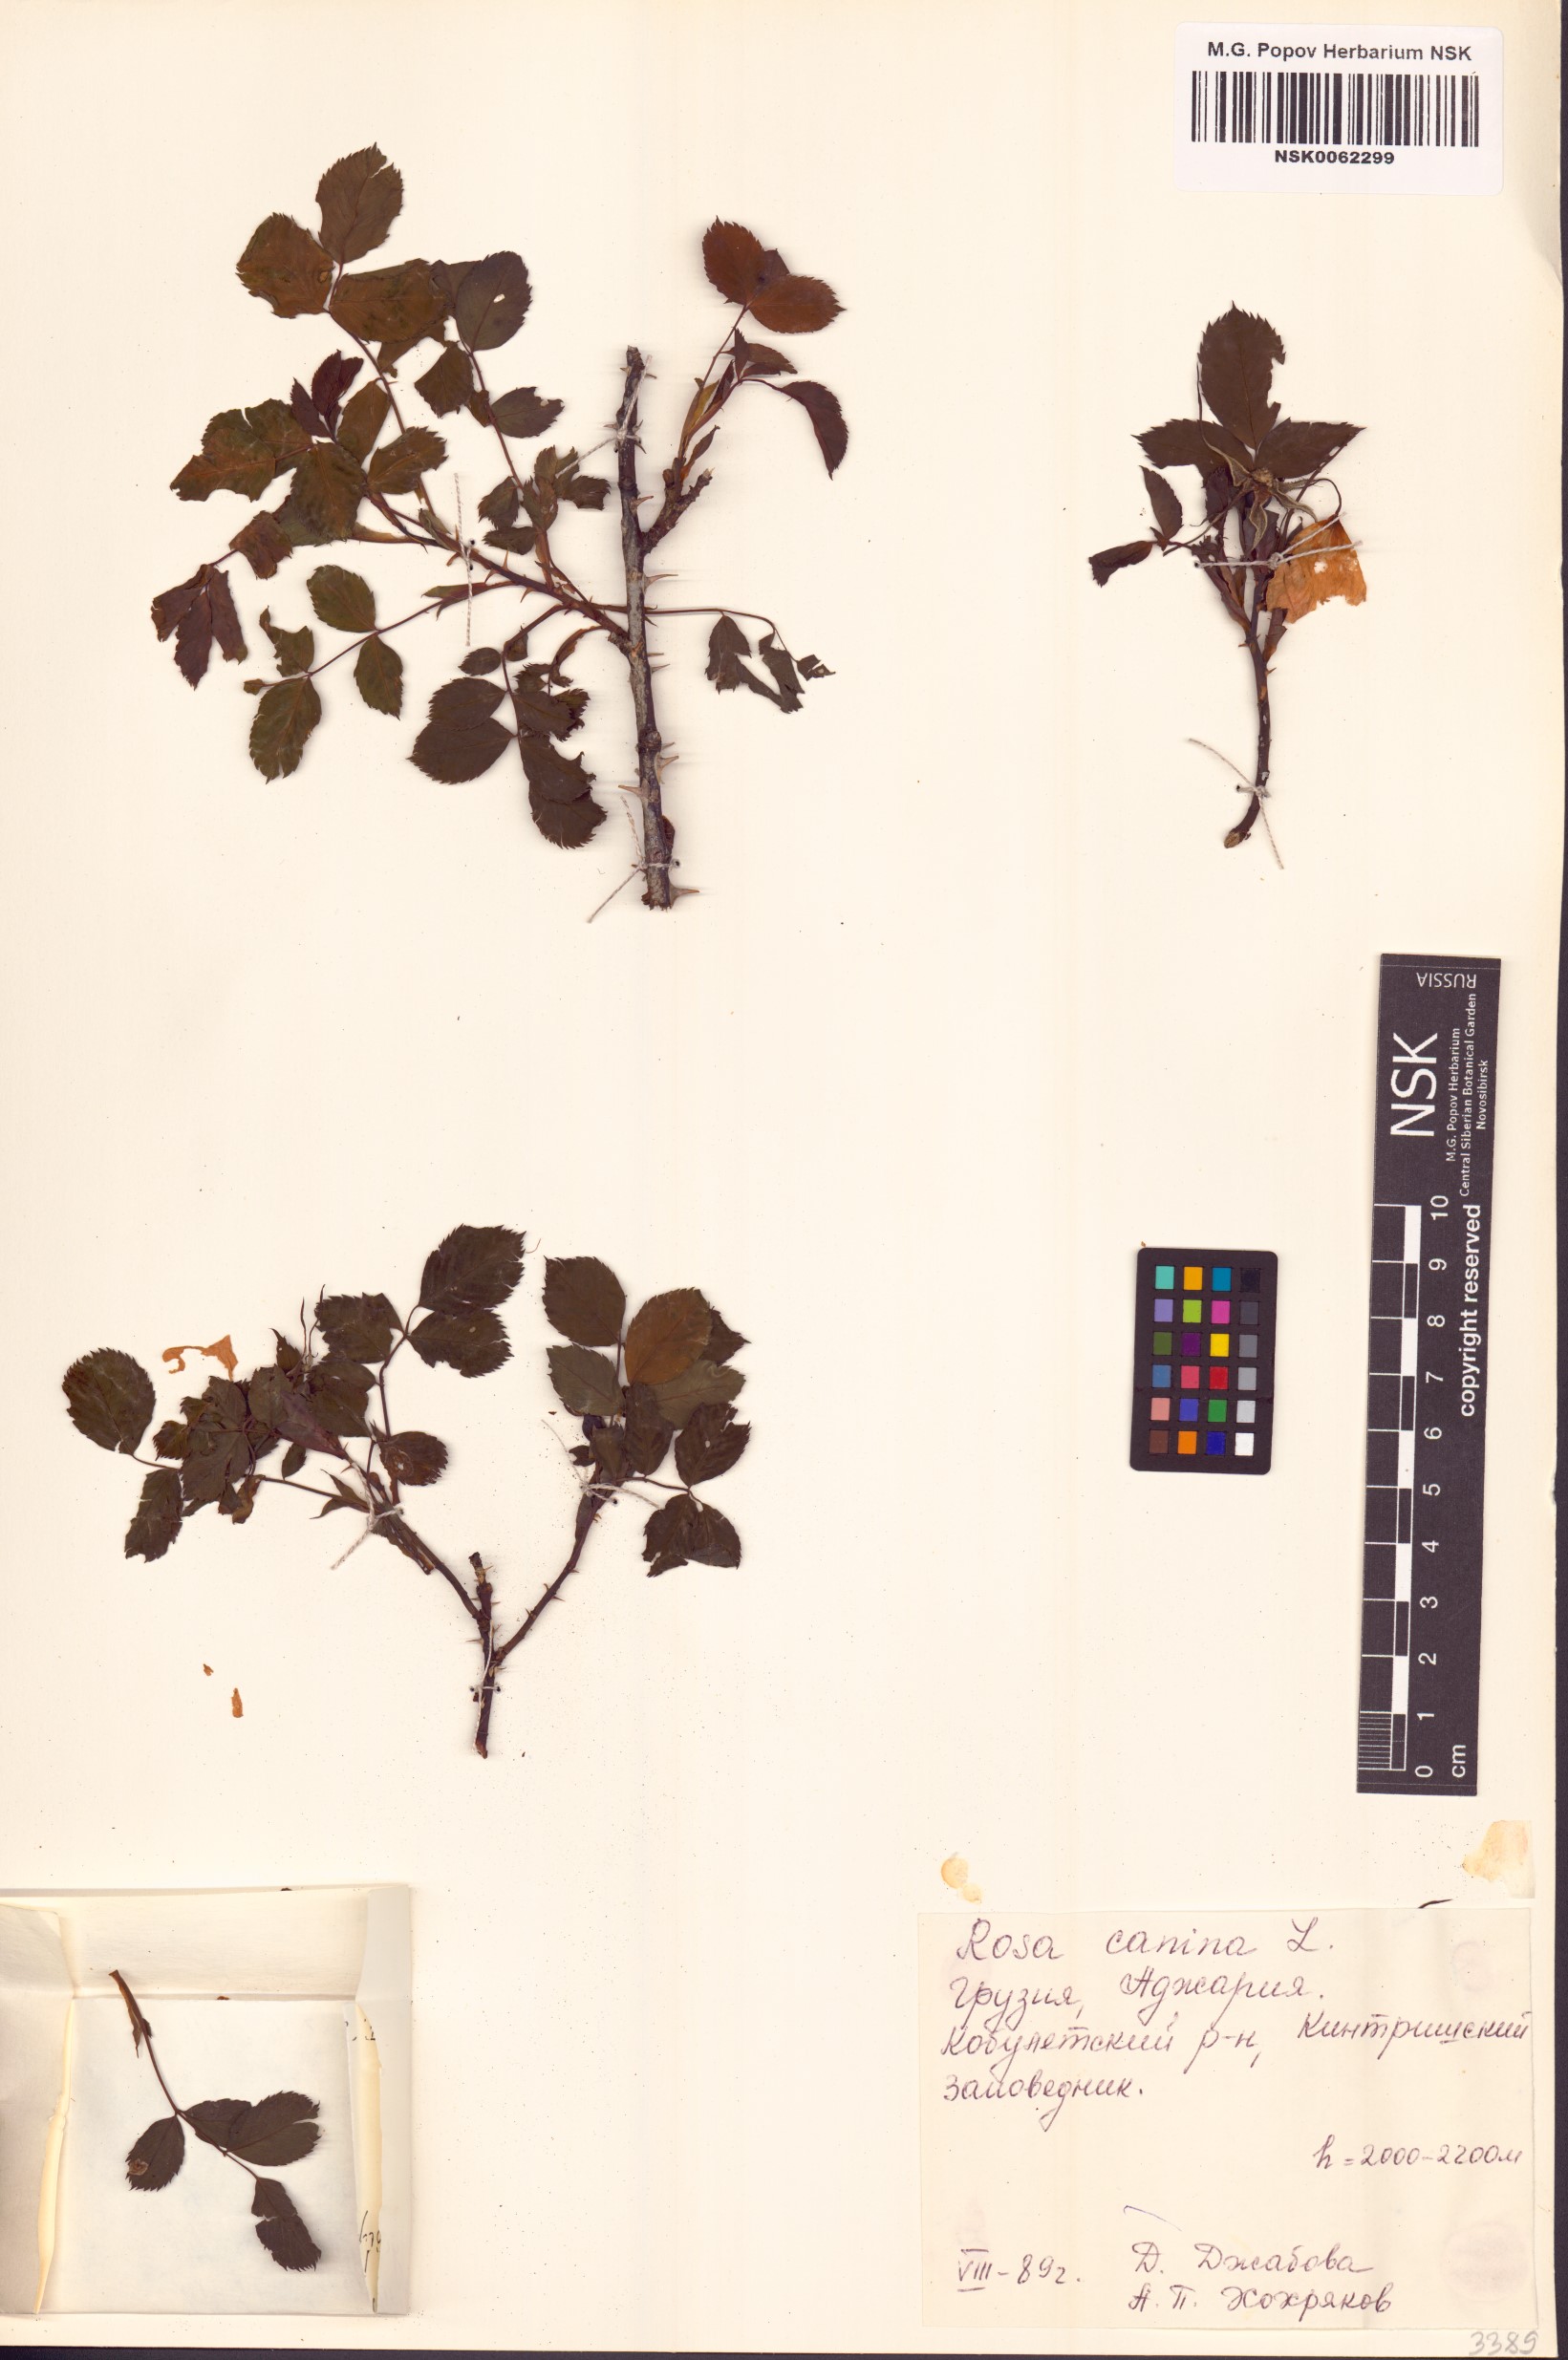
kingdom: Plantae
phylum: Tracheophyta
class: Magnoliopsida
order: Rosales
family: Rosaceae
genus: Rosa
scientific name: Rosa canina
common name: Dog rose
